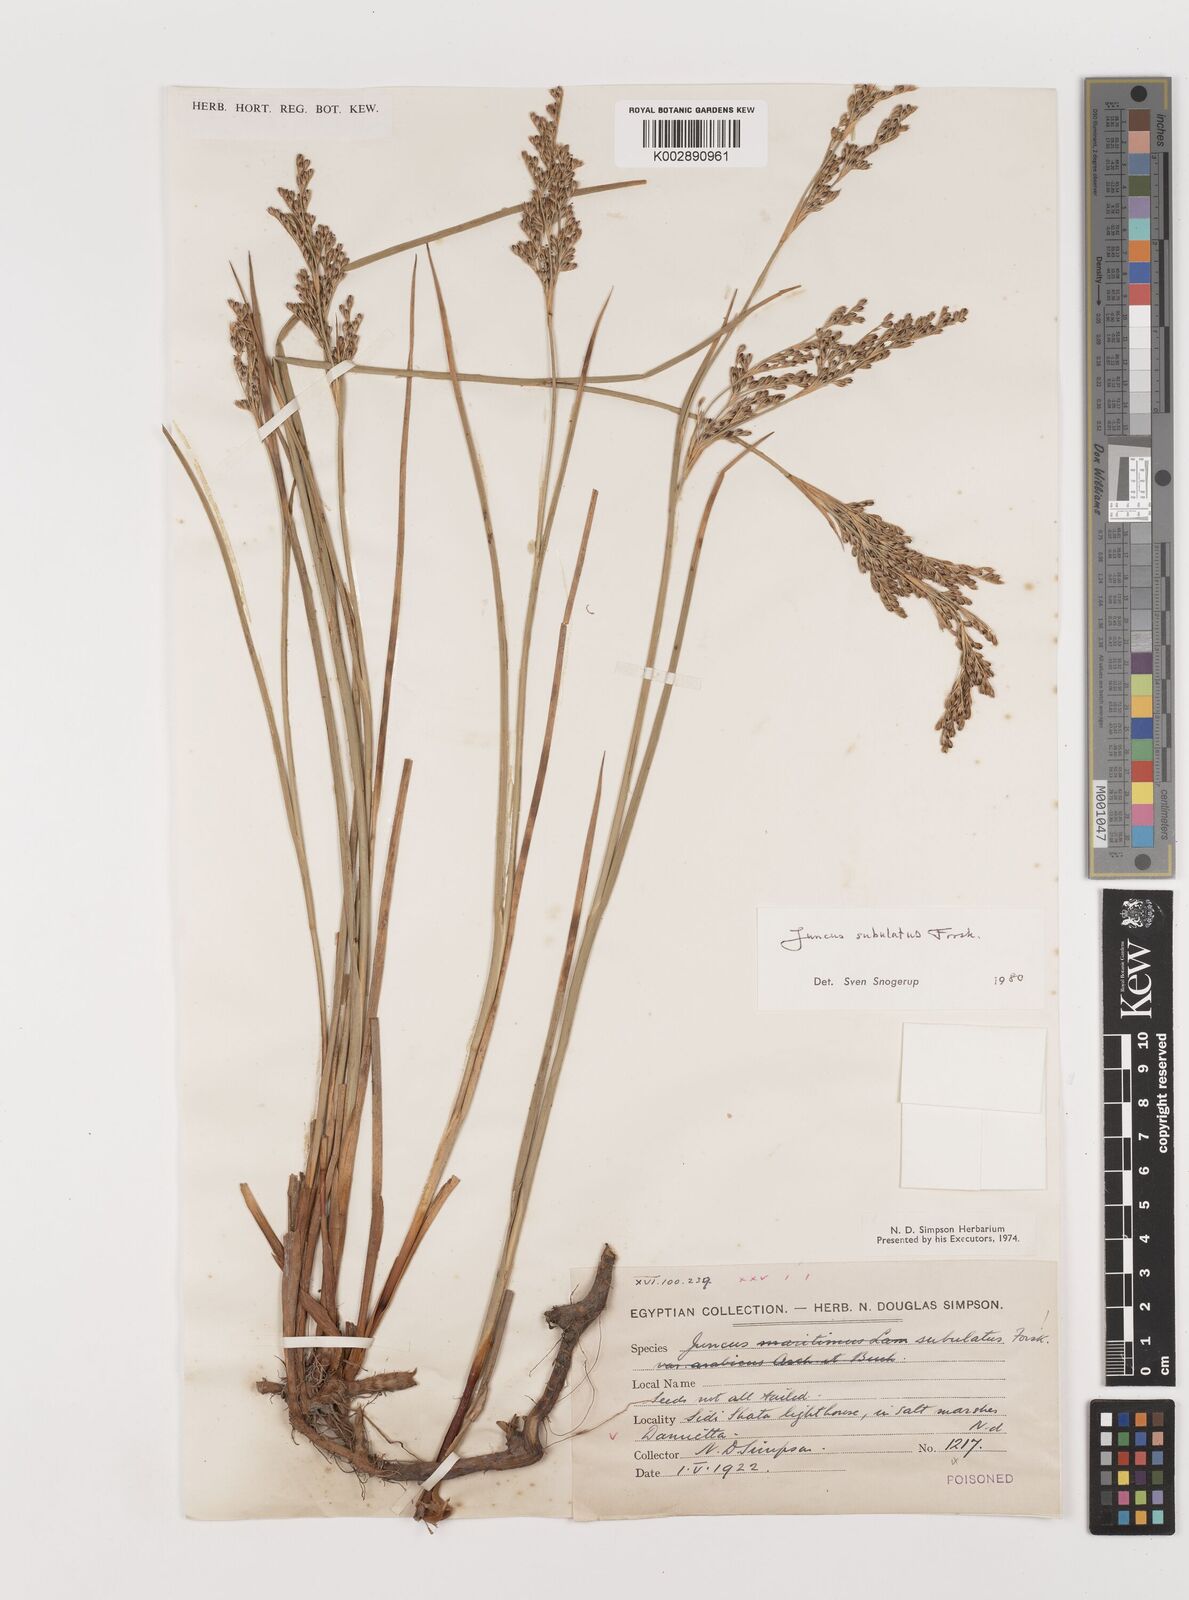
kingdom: Plantae
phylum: Tracheophyta
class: Liliopsida
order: Poales
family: Juncaceae
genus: Juncus
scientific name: Juncus subulatus
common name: Somerset rush
